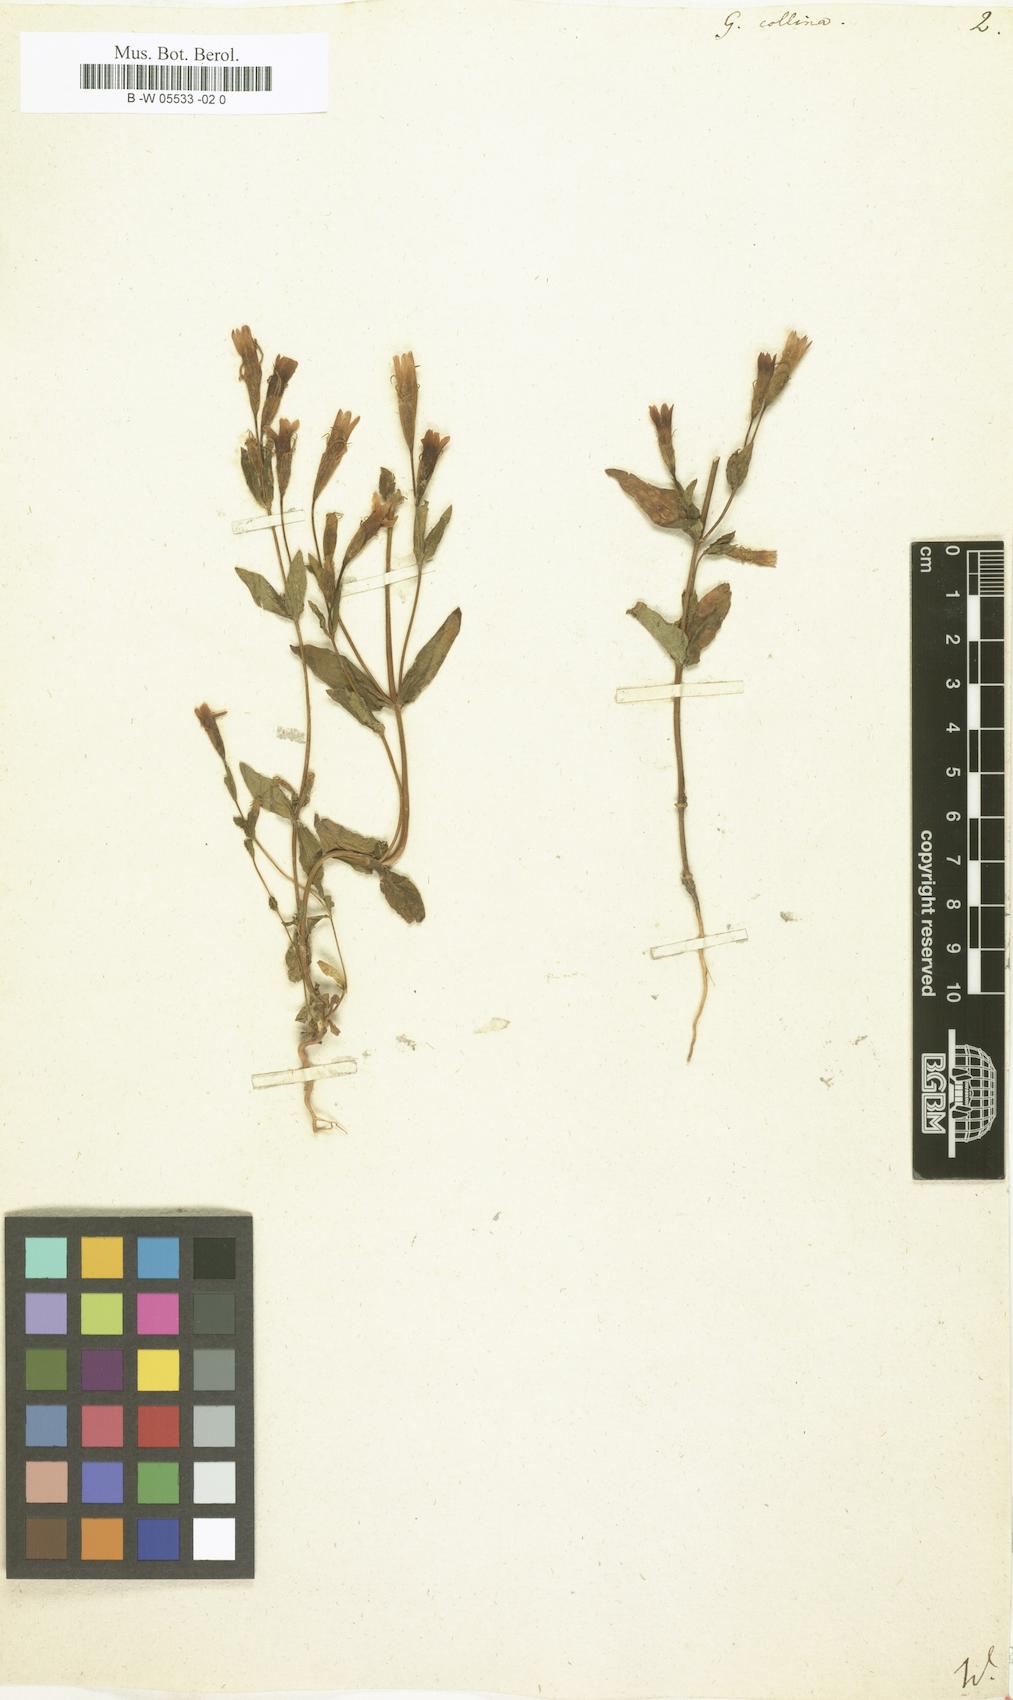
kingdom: Plantae
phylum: Tracheophyta
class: Magnoliopsida
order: Gentianales
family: Gentianaceae
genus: Gentianella
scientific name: Gentianella caucasea
